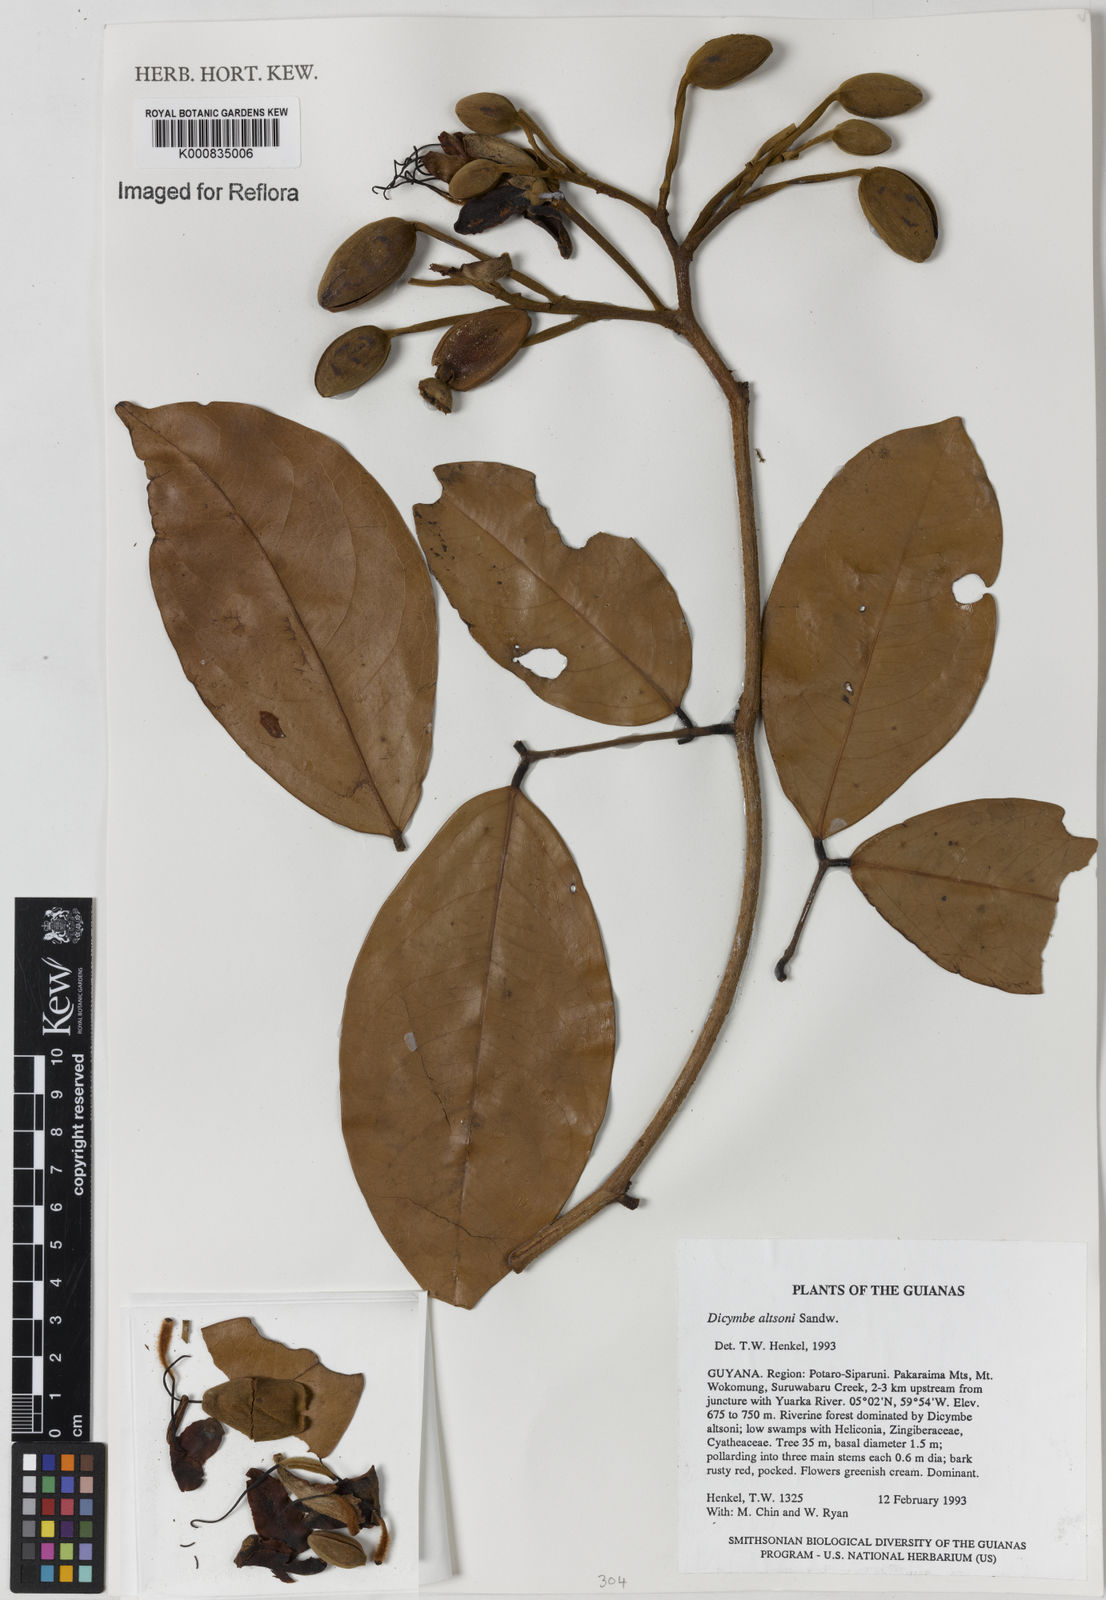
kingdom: Plantae
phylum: Tracheophyta
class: Magnoliopsida
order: Fabales
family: Fabaceae
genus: Dicymbe
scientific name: Dicymbe altsonii
